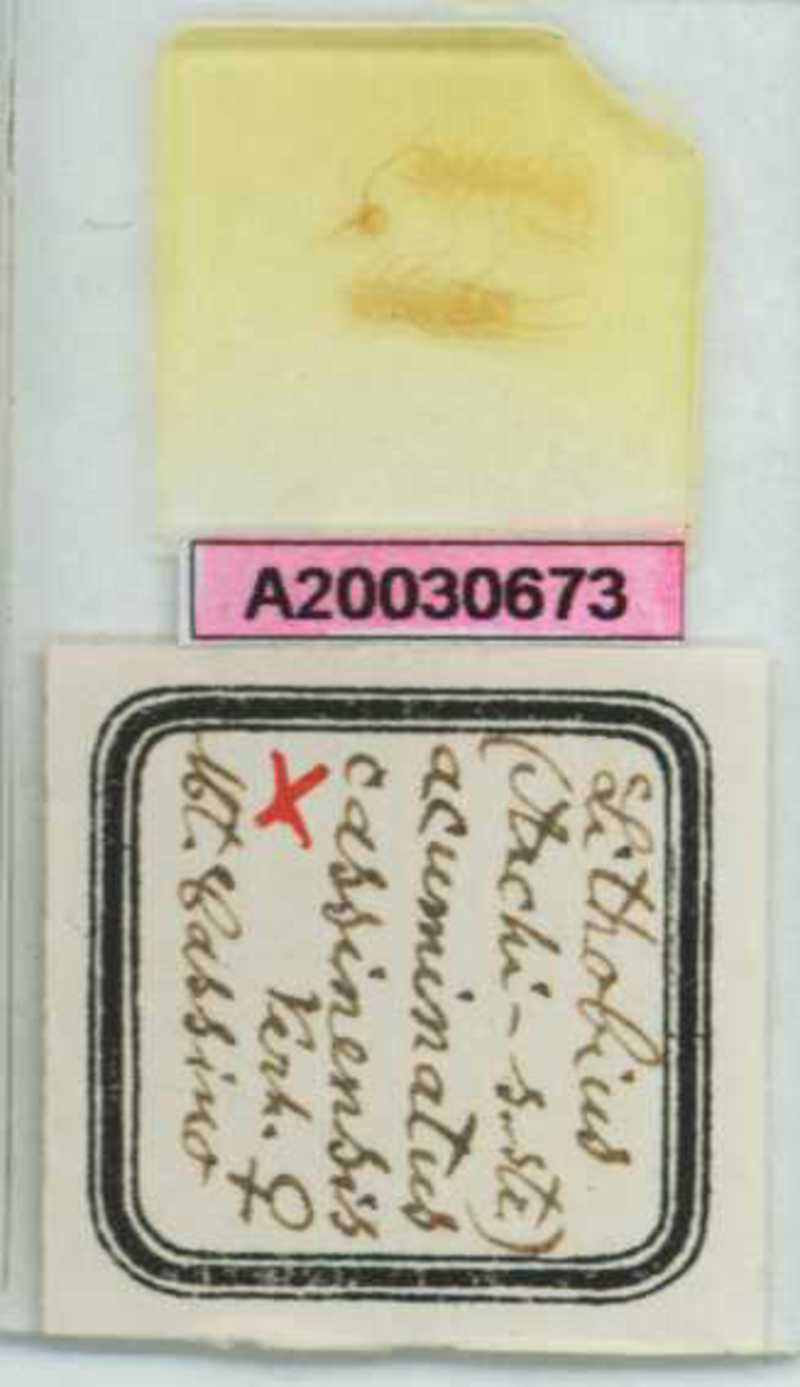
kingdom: Animalia
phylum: Arthropoda
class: Chilopoda
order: Lithobiomorpha
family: Lithobiidae
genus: Lithobius
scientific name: Lithobius acuminatus
